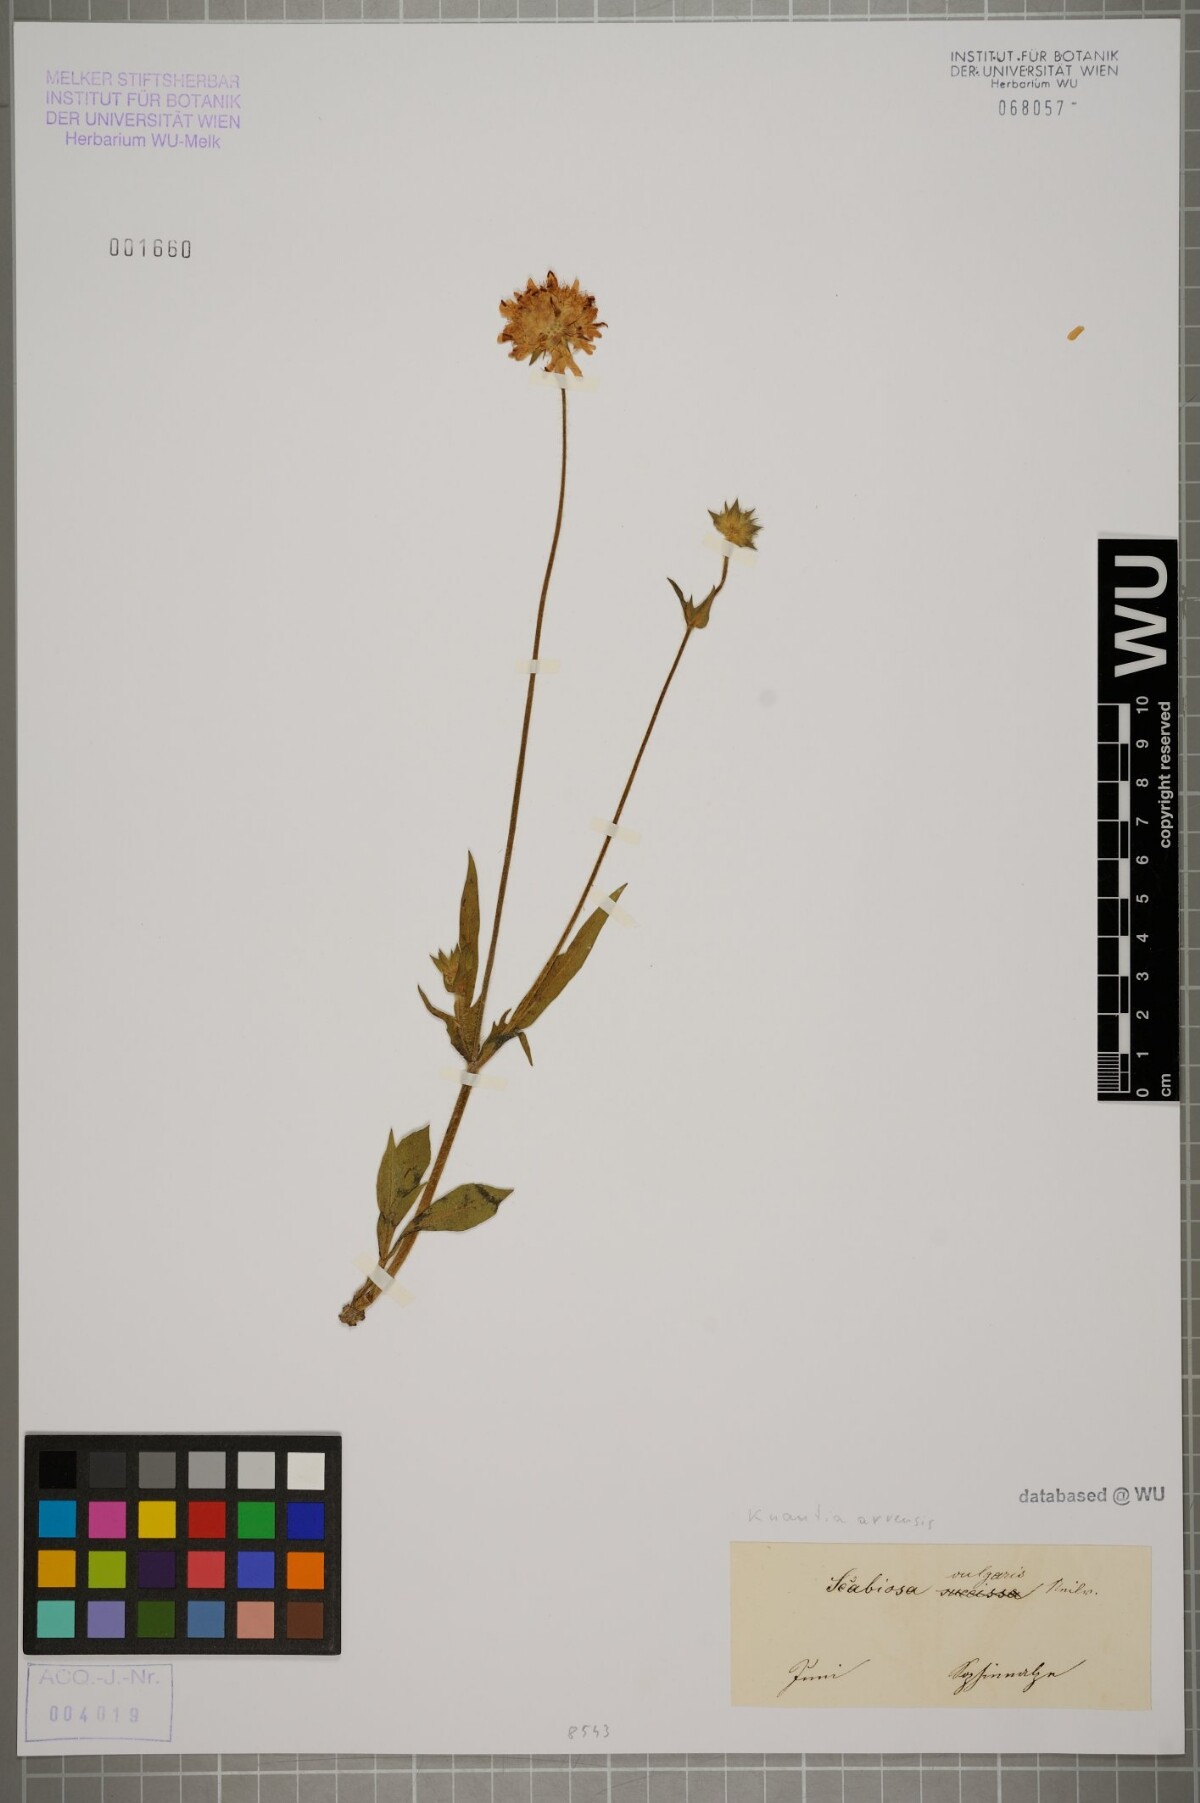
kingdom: Plantae
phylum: Tracheophyta
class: Magnoliopsida
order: Dipsacales
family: Caprifoliaceae
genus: Knautia
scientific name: Knautia arvensis
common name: Field scabiosa
